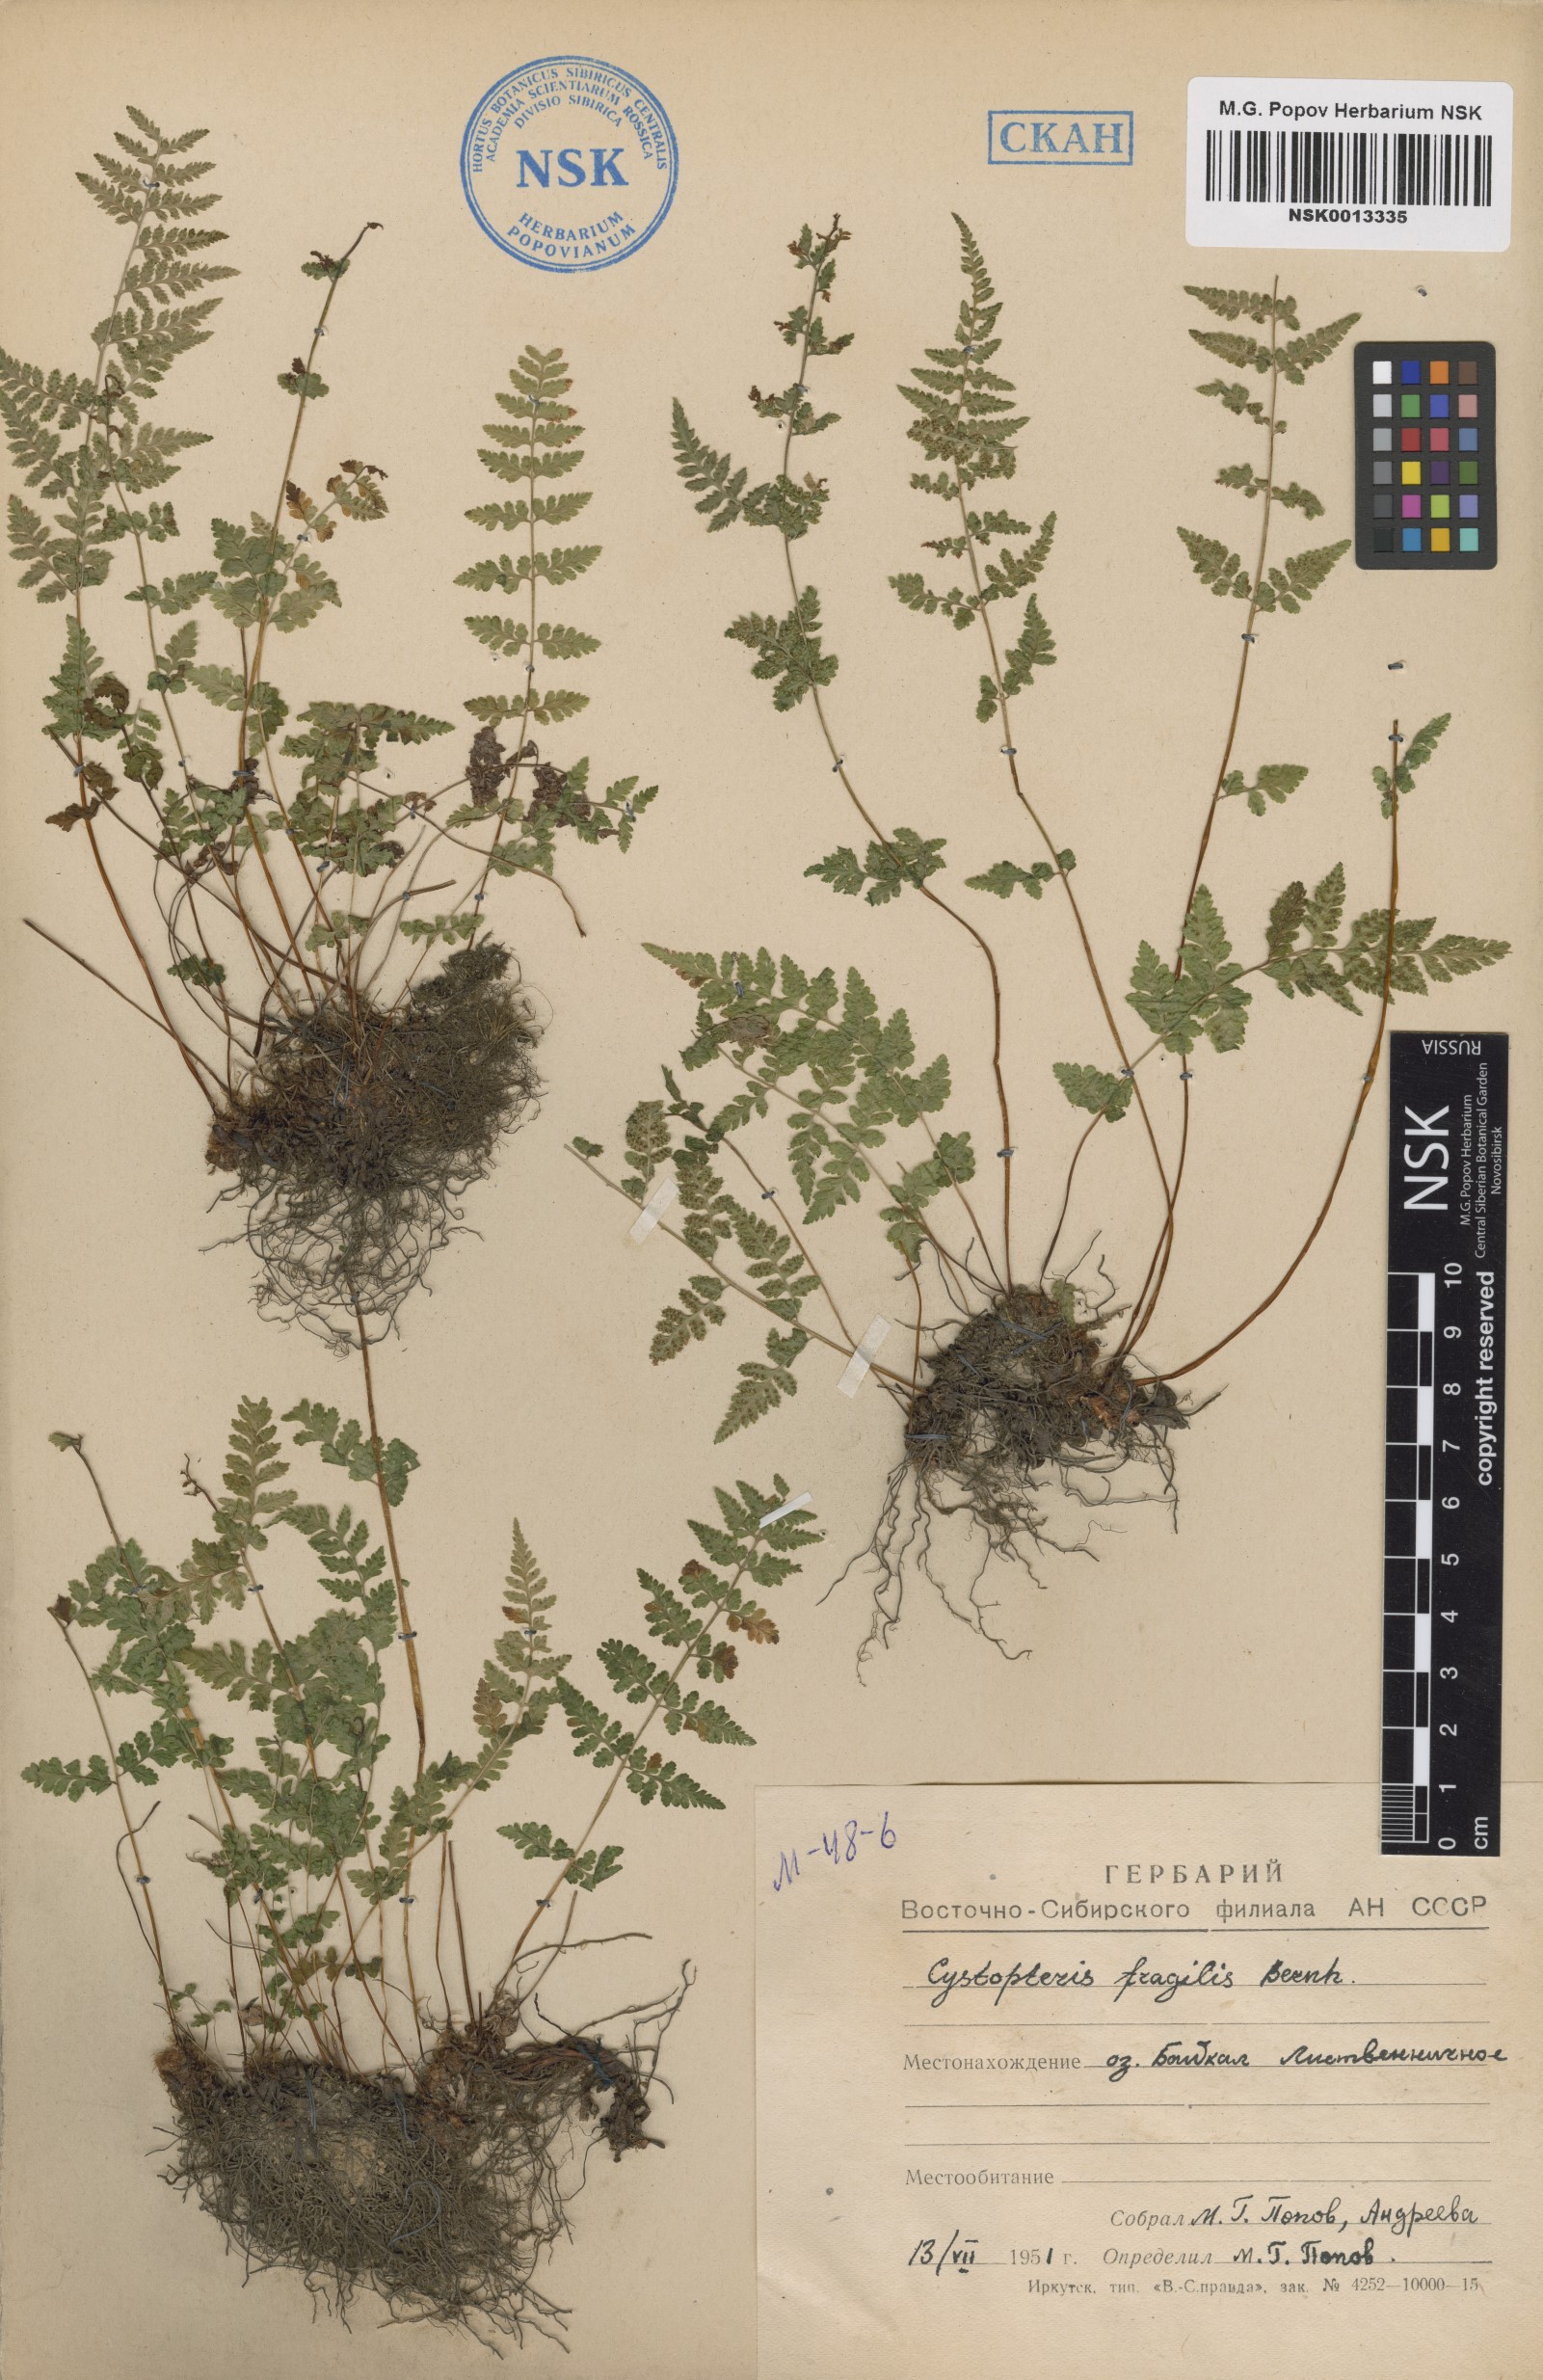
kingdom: Plantae
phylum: Tracheophyta
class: Polypodiopsida
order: Polypodiales
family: Cystopteridaceae
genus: Cystopteris
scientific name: Cystopteris fragilis
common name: Brittle bladder fern
